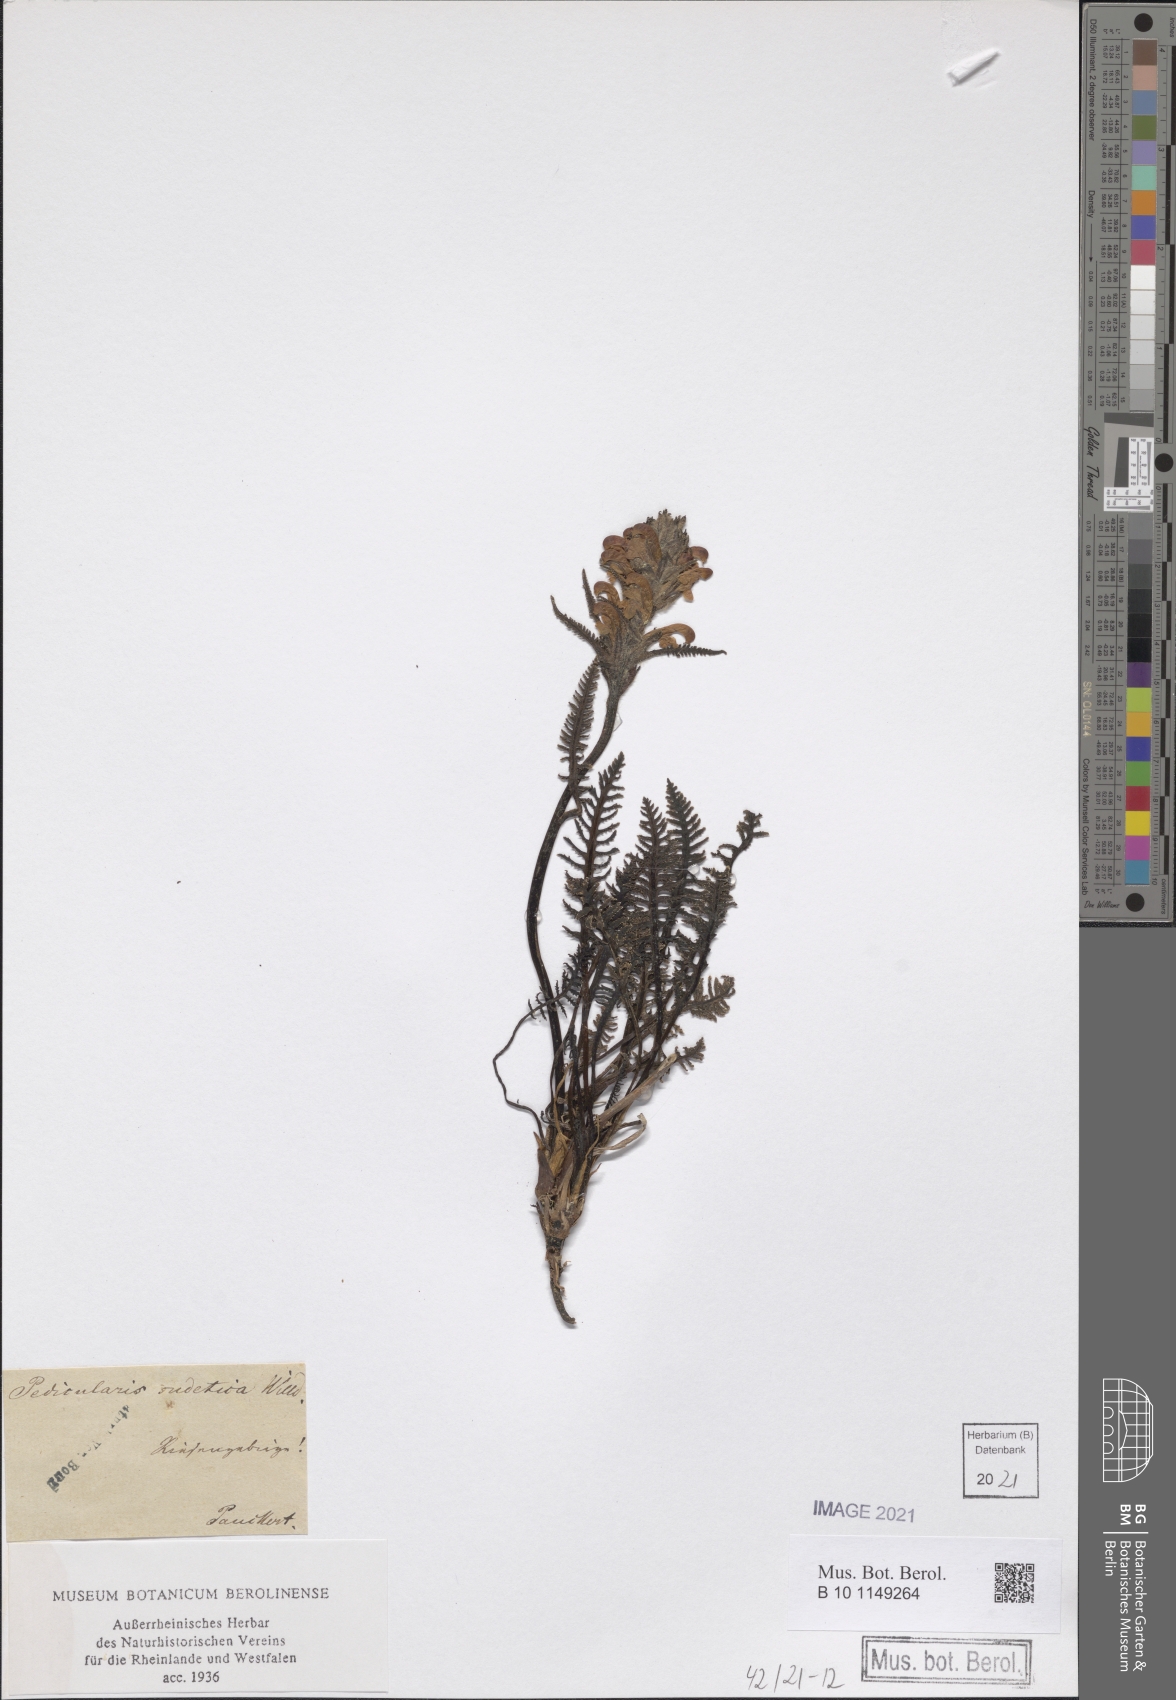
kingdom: Plantae
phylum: Tracheophyta
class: Magnoliopsida
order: Lamiales
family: Orobanchaceae
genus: Pedicularis
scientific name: Pedicularis sudetica
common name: Sudeten lousewort
